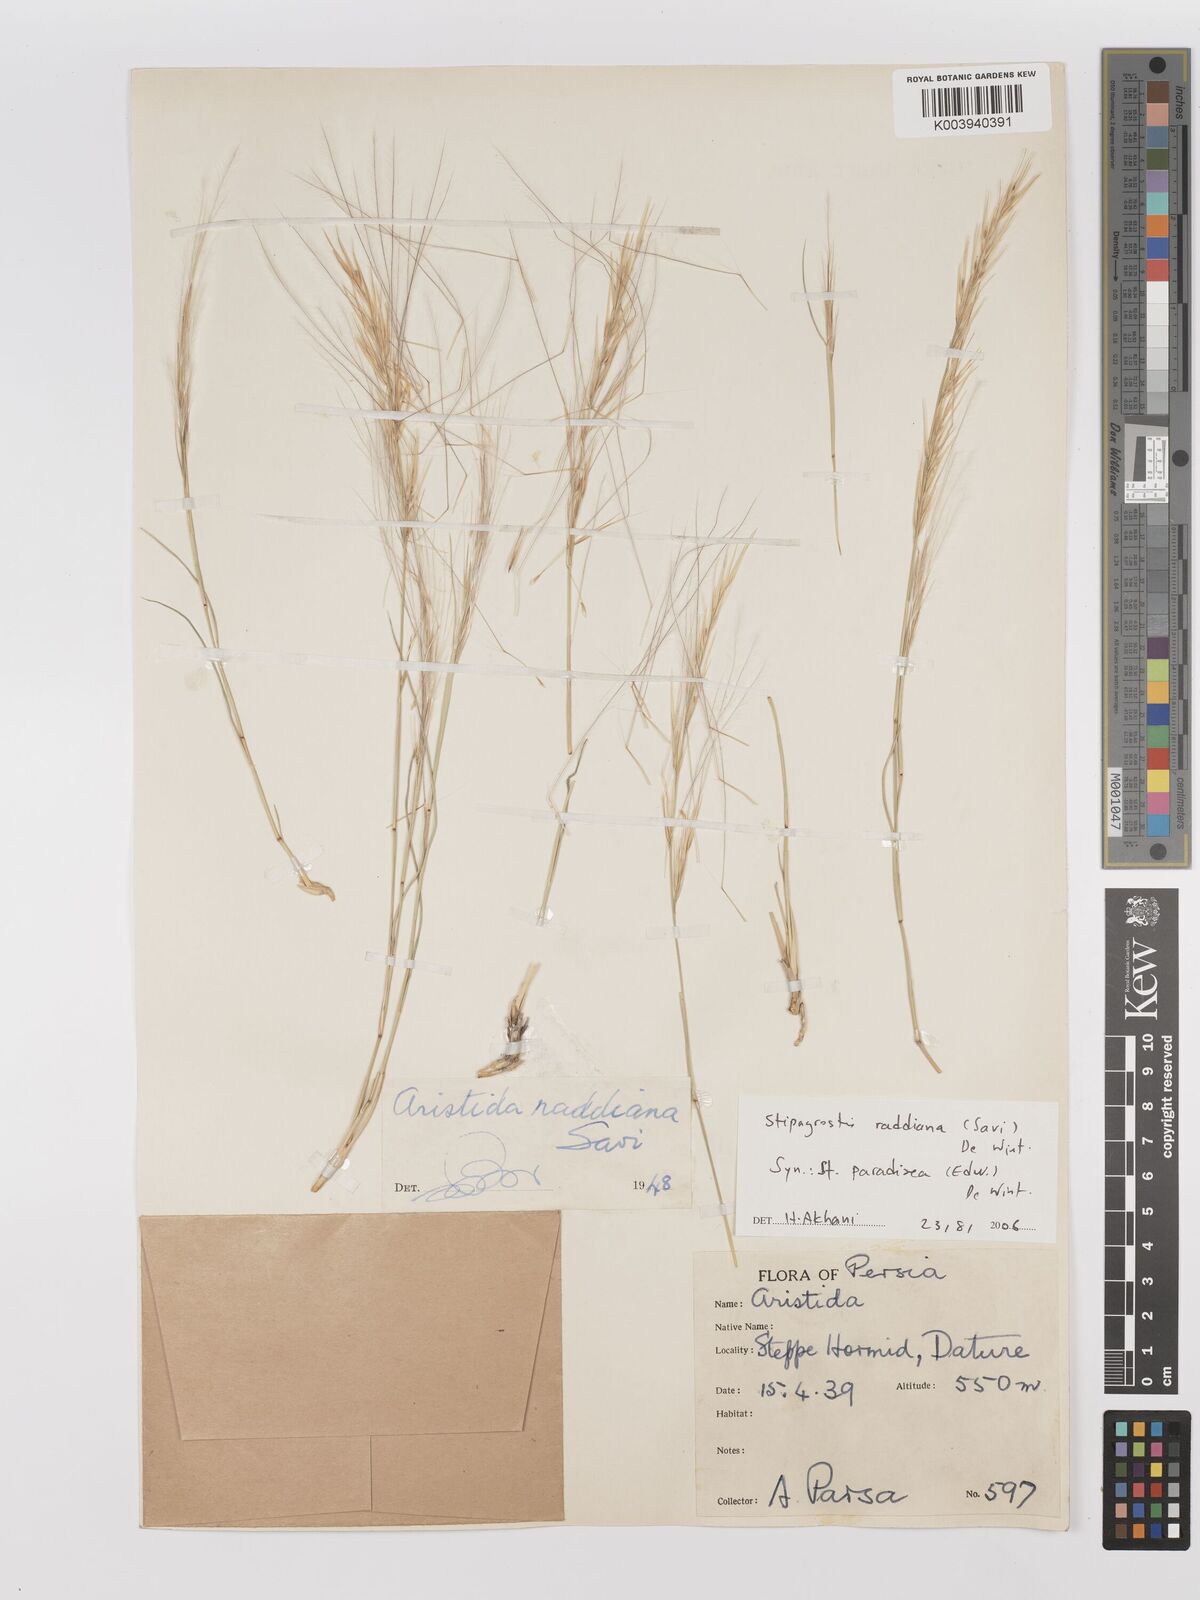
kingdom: Plantae
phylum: Tracheophyta
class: Liliopsida
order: Poales
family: Poaceae
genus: Stipagrostis
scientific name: Stipagrostis paradisea
